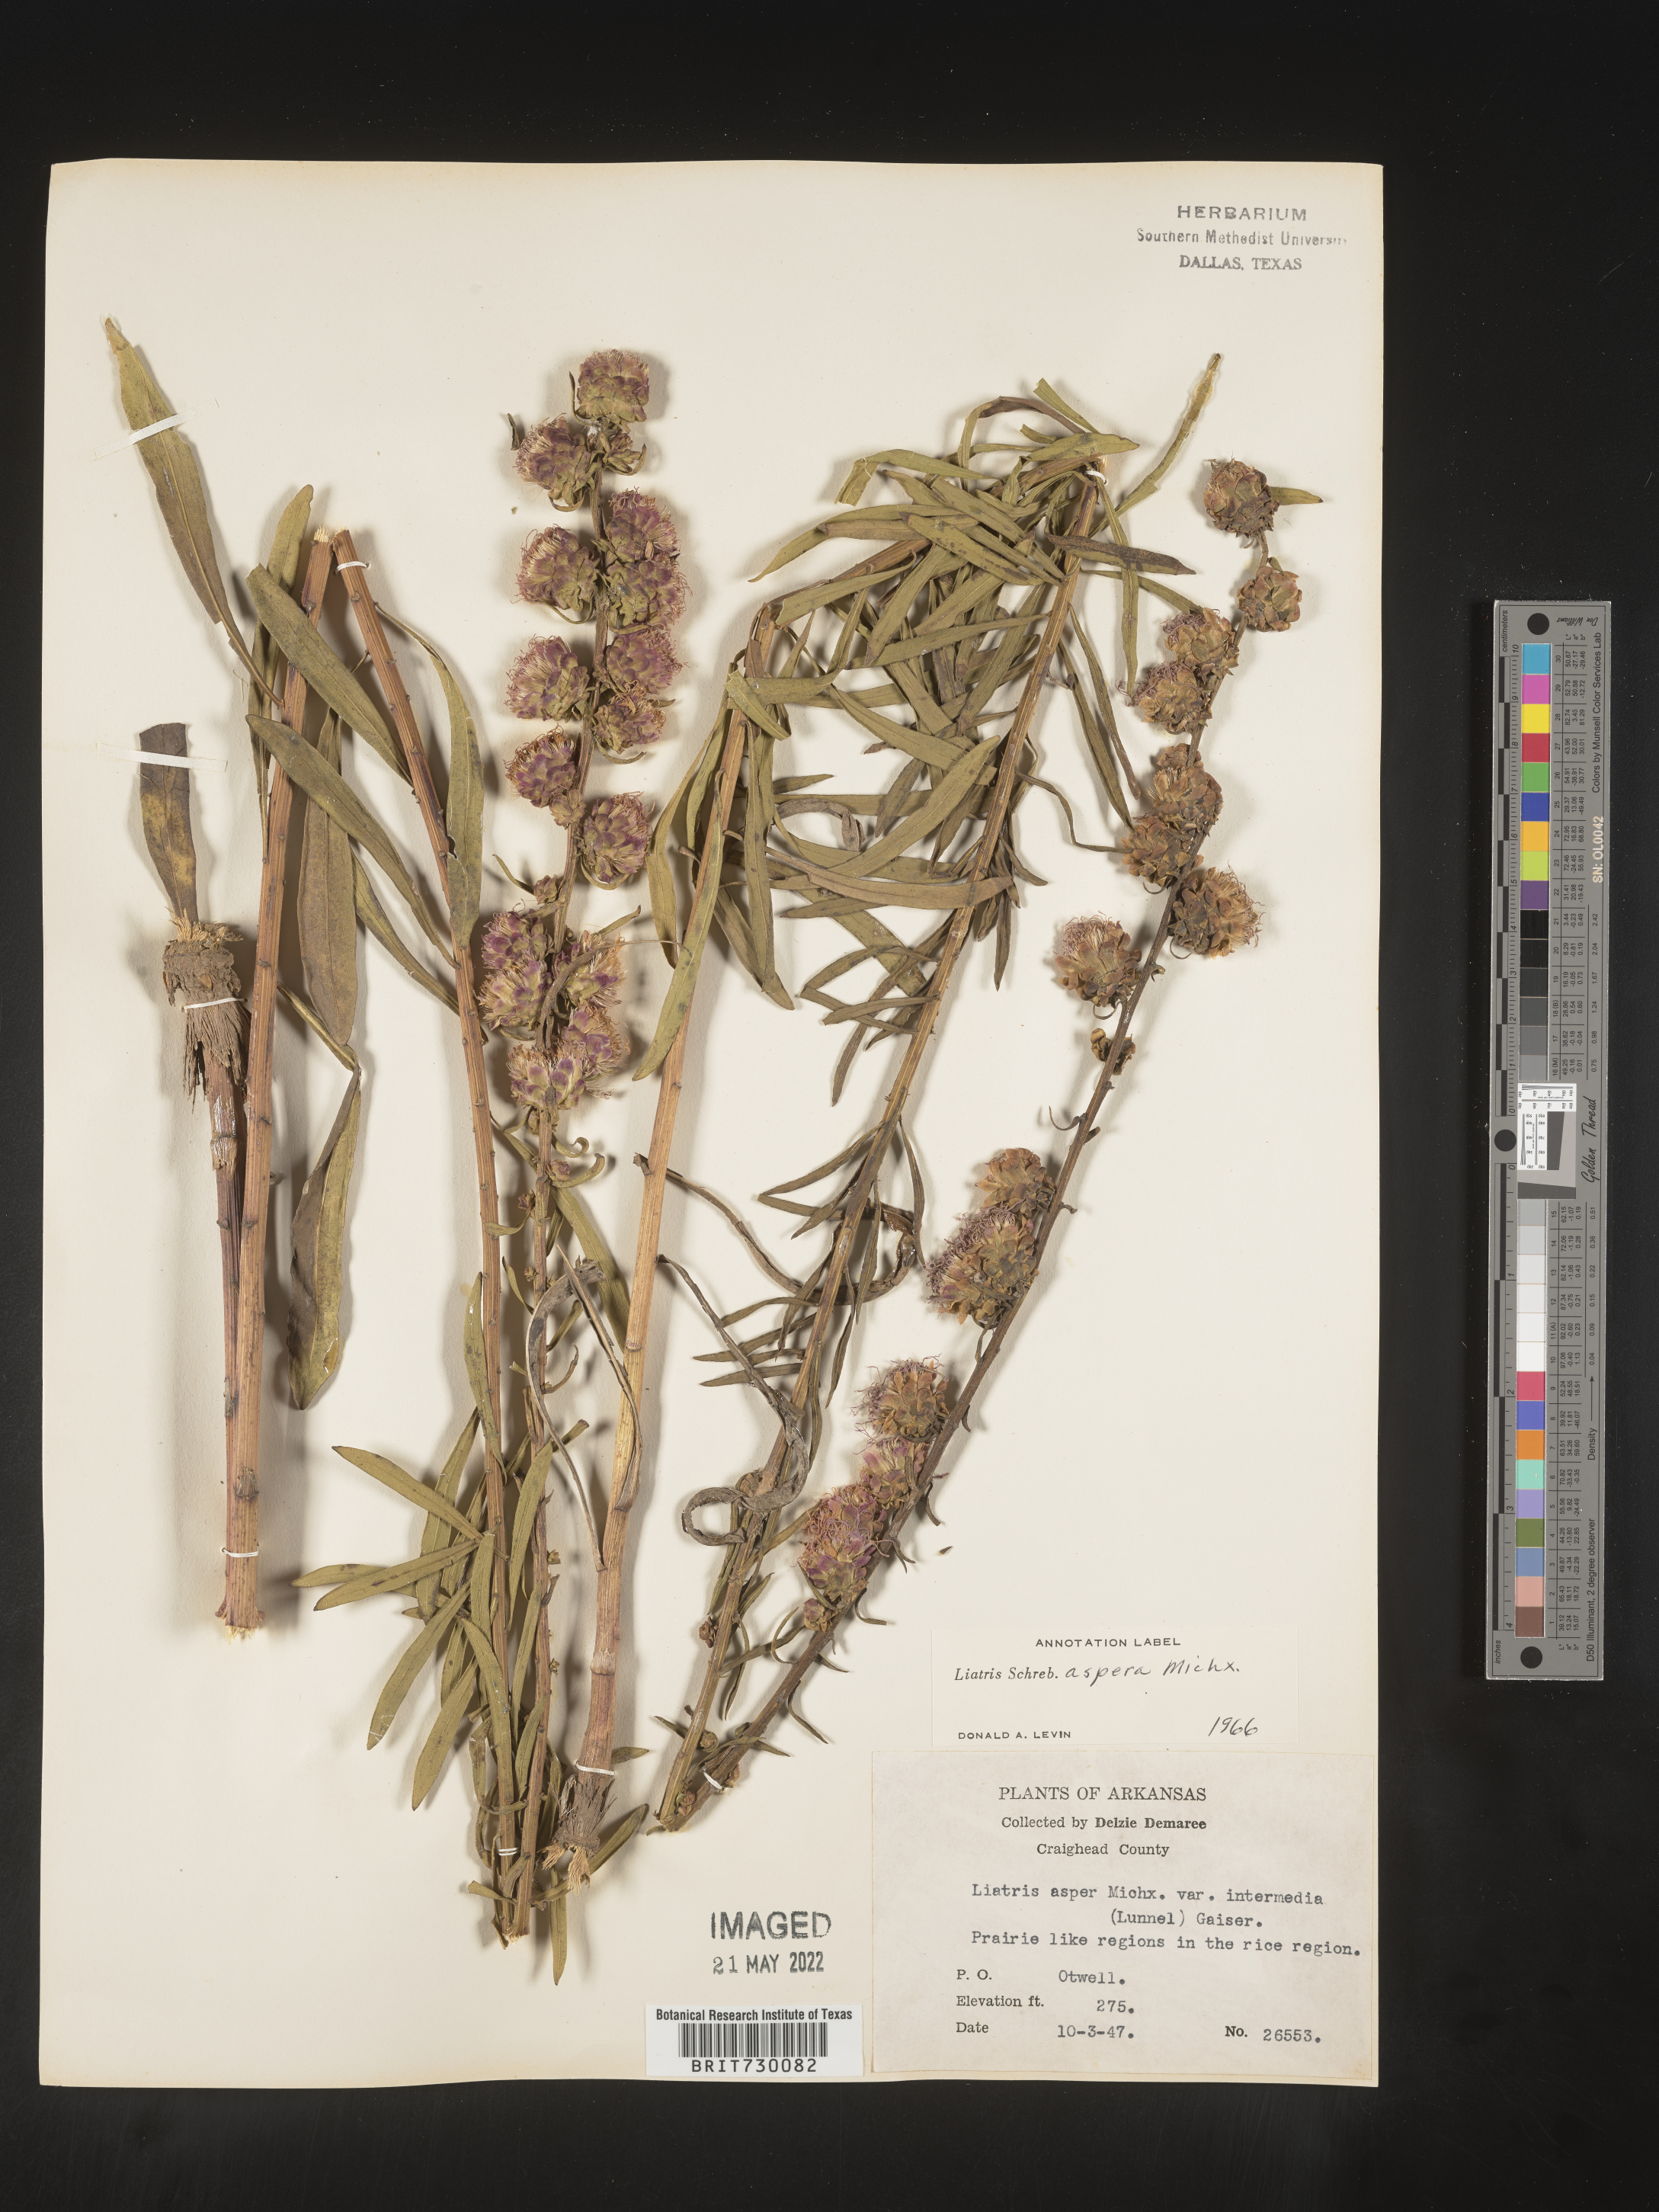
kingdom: Plantae
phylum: Tracheophyta
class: Magnoliopsida
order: Asterales
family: Asteraceae
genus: Liatris
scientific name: Liatris aspera
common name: Lacerate blazing-star
